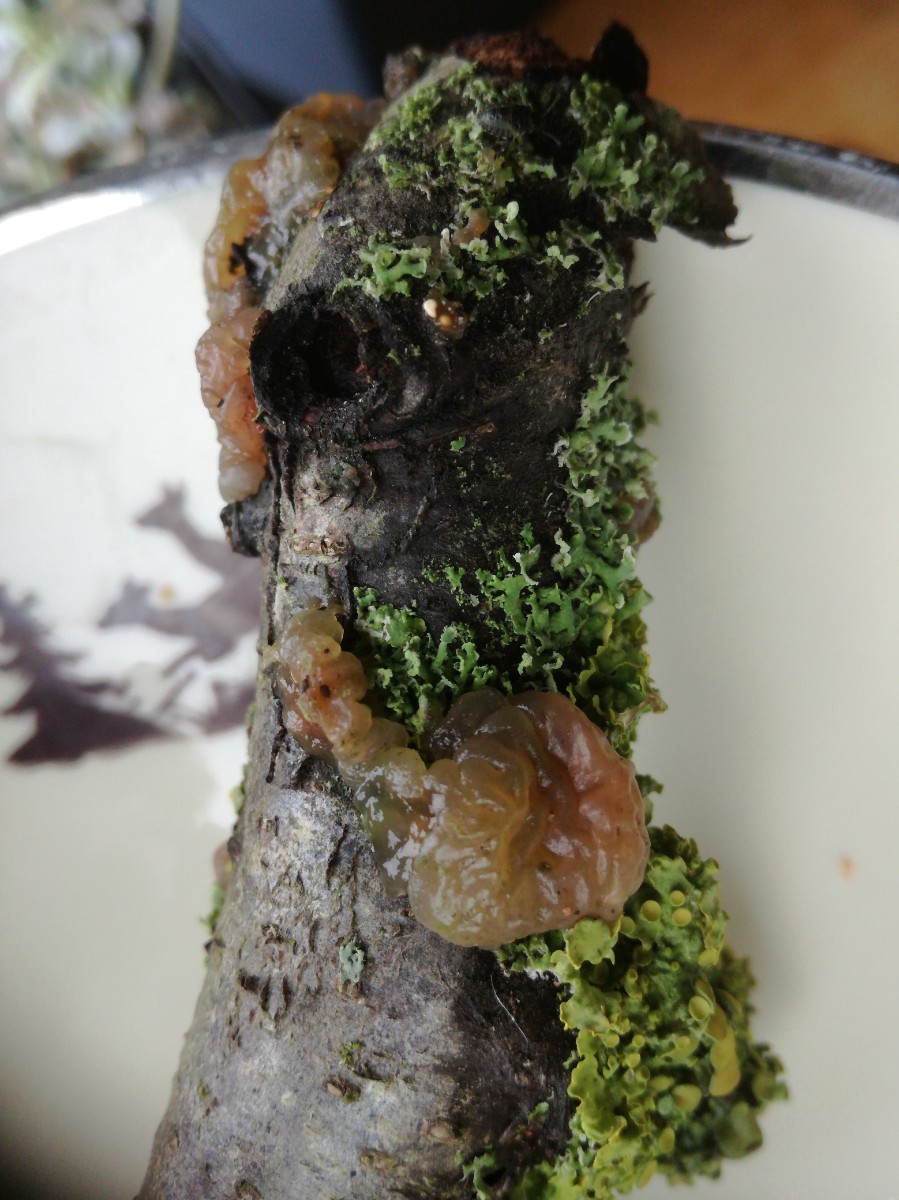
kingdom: Fungi
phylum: Basidiomycota
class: Tremellomycetes
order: Tremellales
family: Exidiaceae
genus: Exidia
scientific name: Exidia
